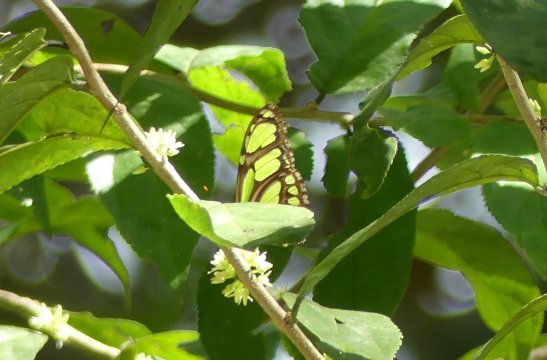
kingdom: Animalia
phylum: Arthropoda
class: Insecta
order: Lepidoptera
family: Nymphalidae
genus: Philaethria
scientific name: Philaethria dido
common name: Northern Green Longwing
